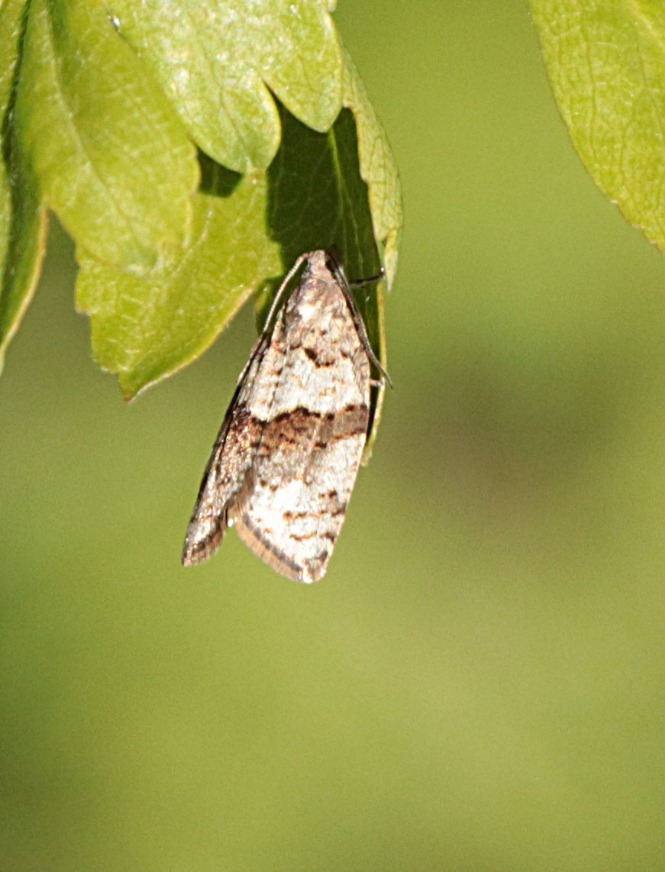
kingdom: Animalia
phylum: Arthropoda
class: Insecta
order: Lepidoptera
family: Tortricidae
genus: Syndemis
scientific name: Syndemis musculana
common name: Høstvikler
